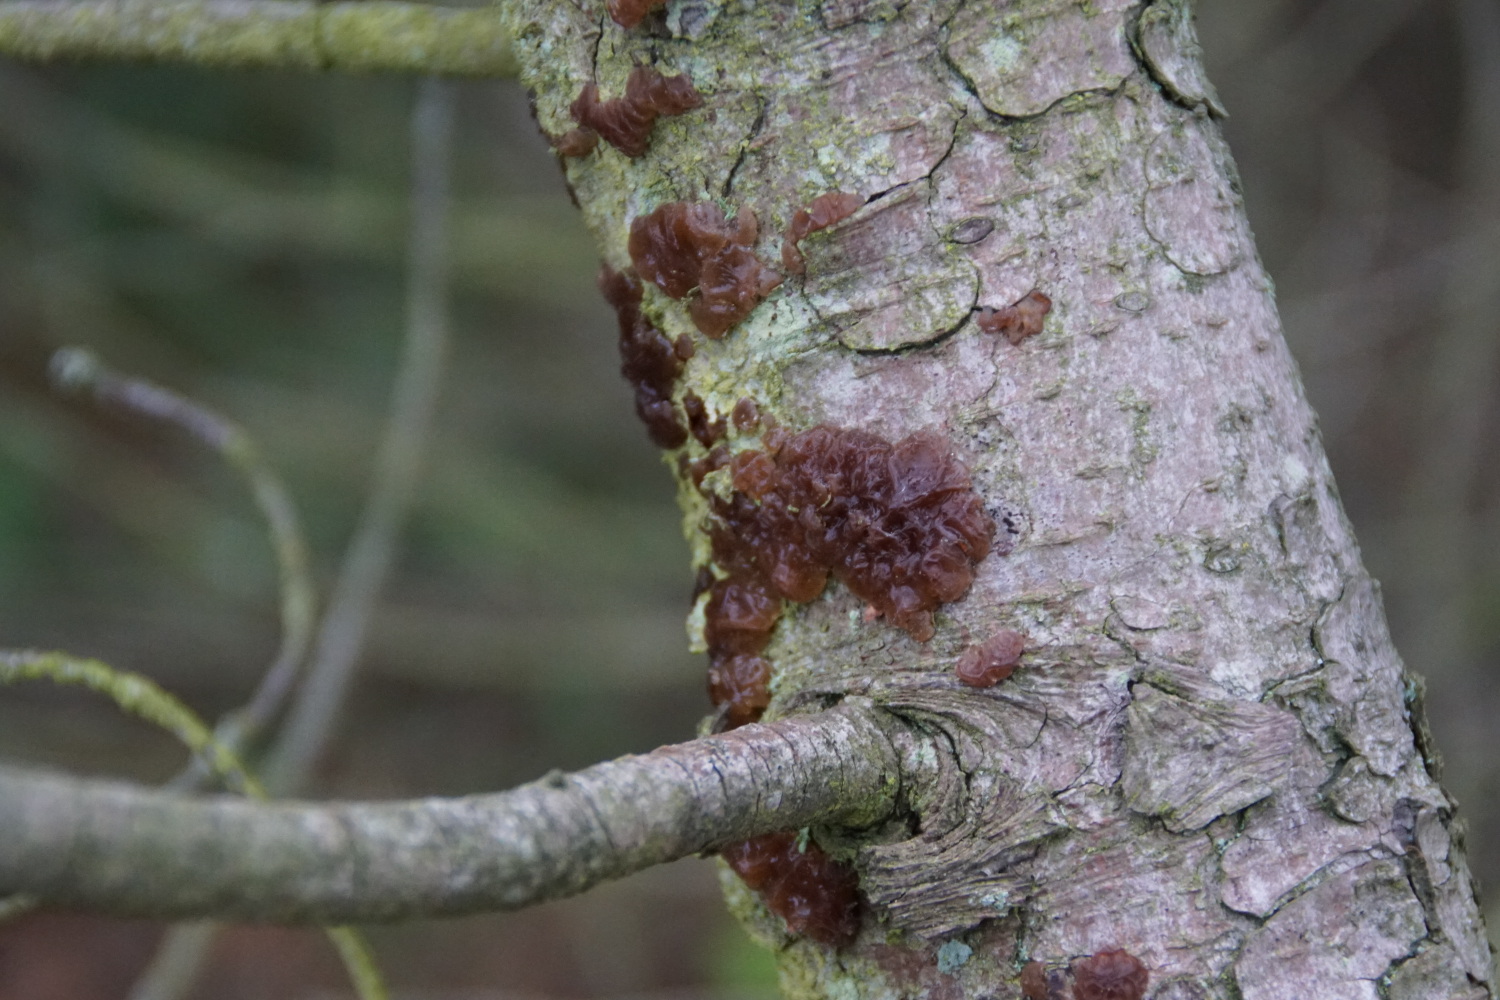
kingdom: Fungi
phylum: Basidiomycota
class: Agaricomycetes
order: Auriculariales
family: Auriculariaceae
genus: Exidia
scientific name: Exidia saccharina
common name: kandis-bævretop
